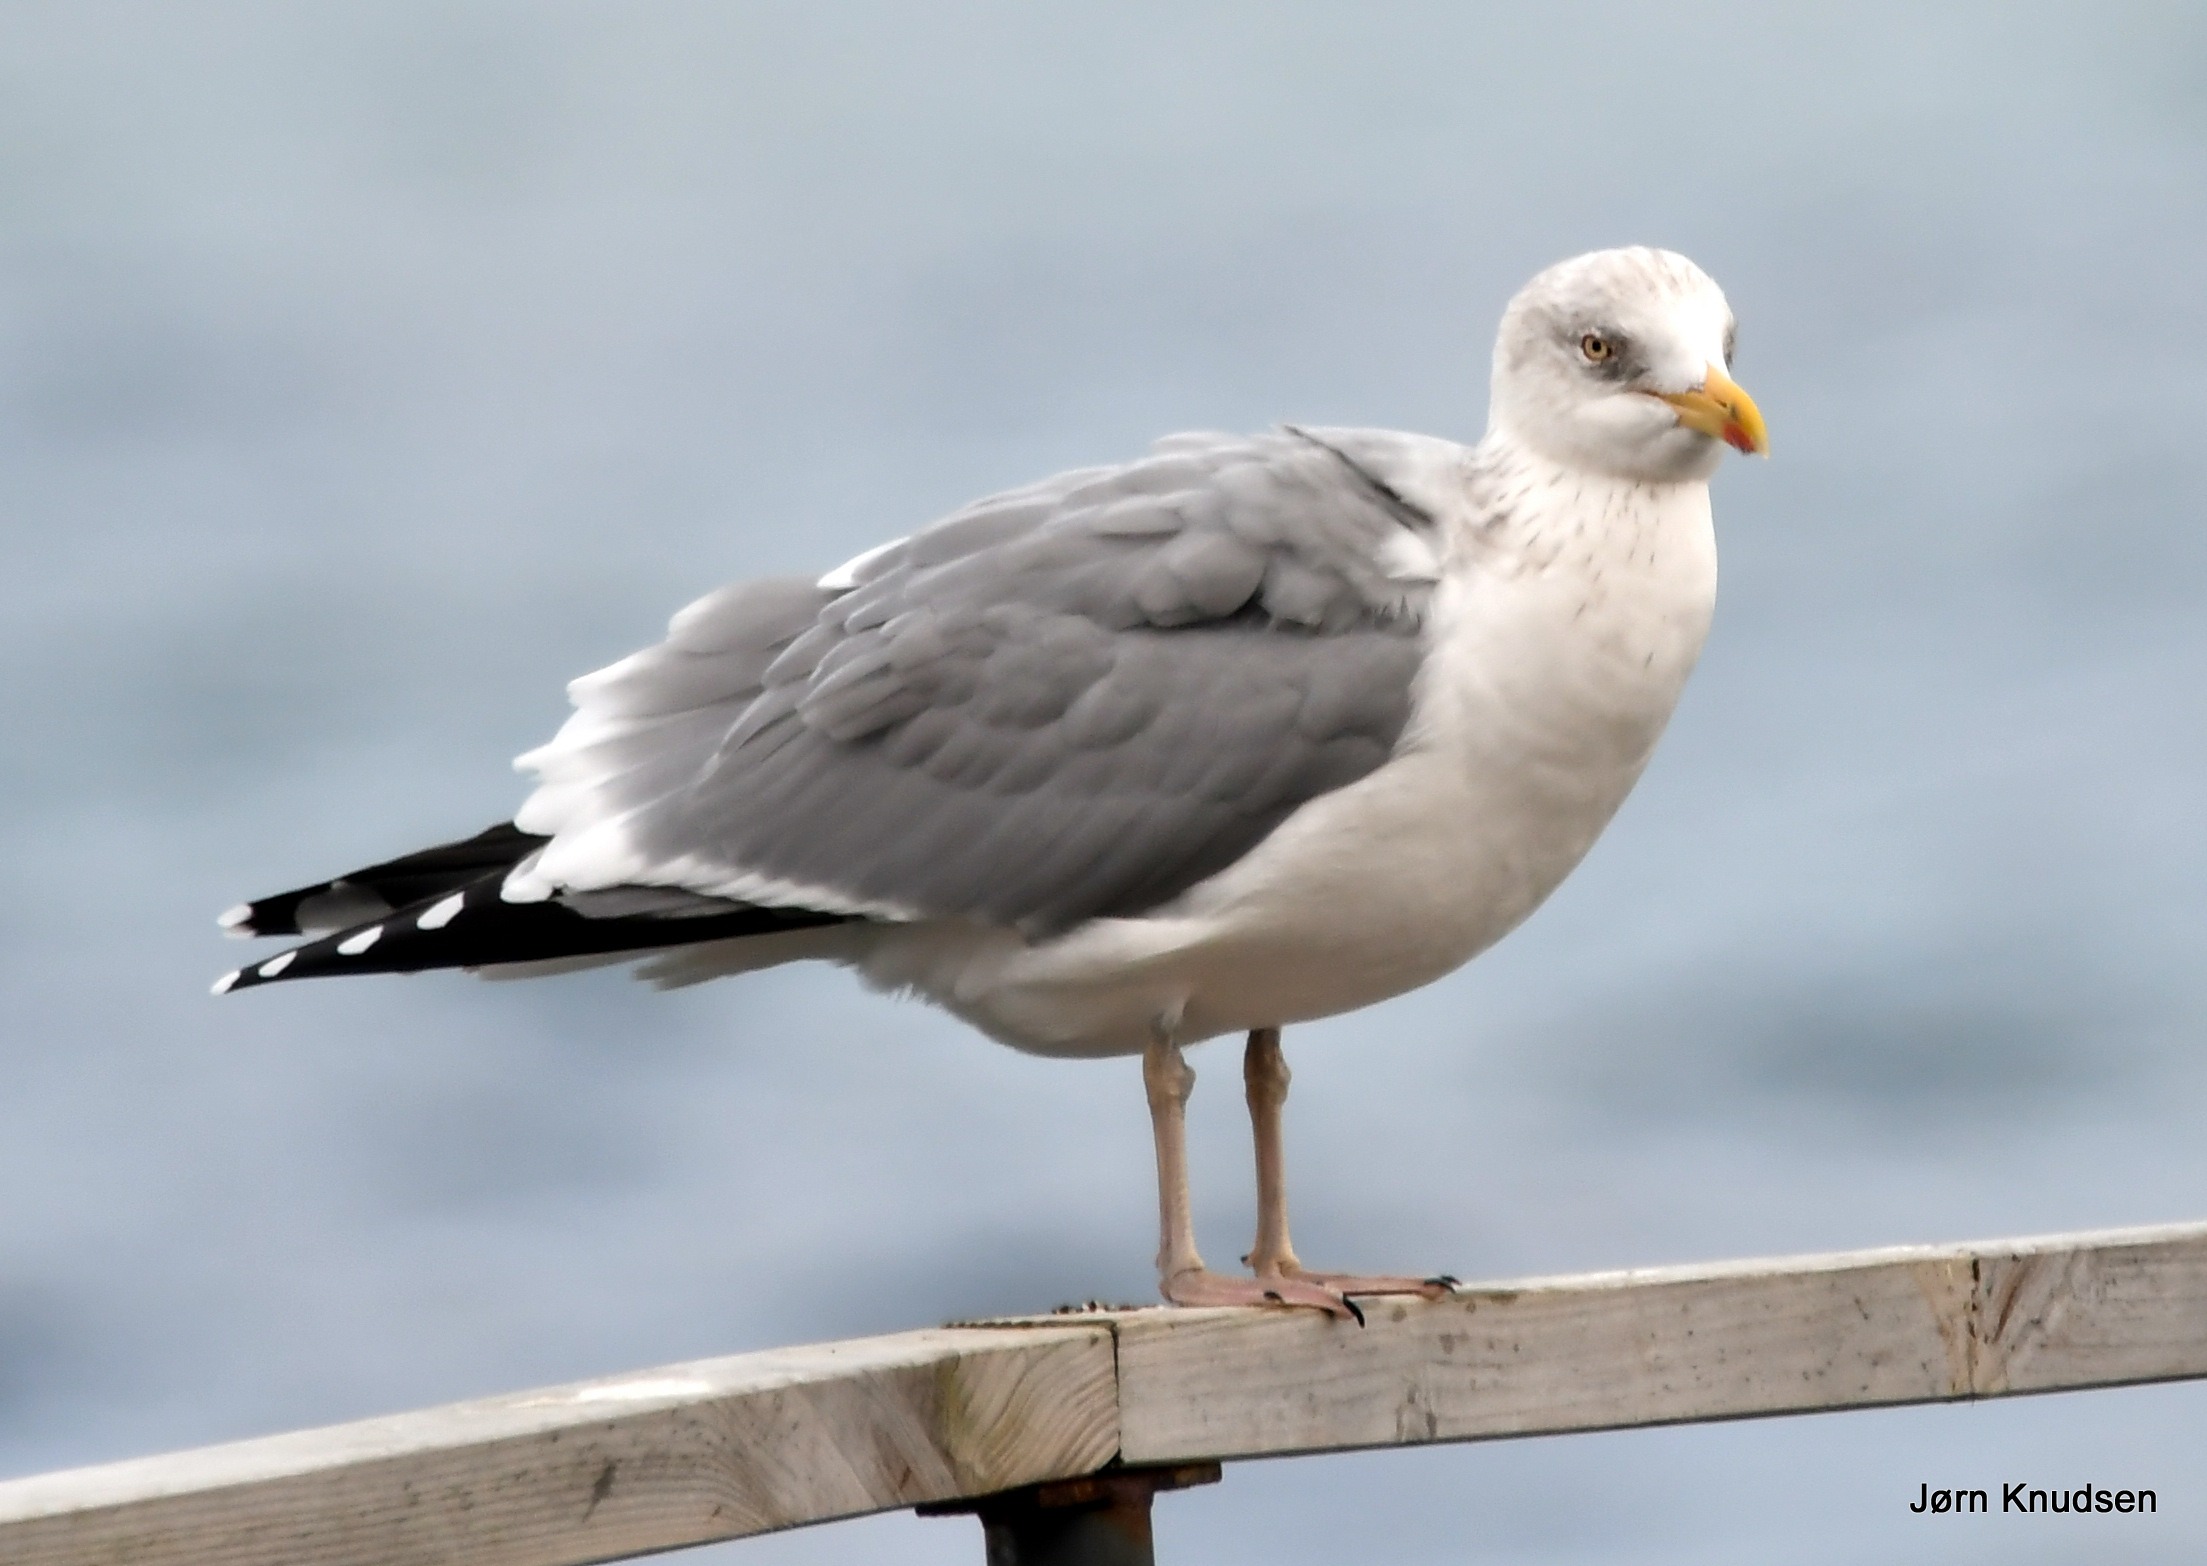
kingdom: Animalia
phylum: Chordata
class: Aves
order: Charadriiformes
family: Laridae
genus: Larus
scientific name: Larus argentatus
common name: Sølvmåge
